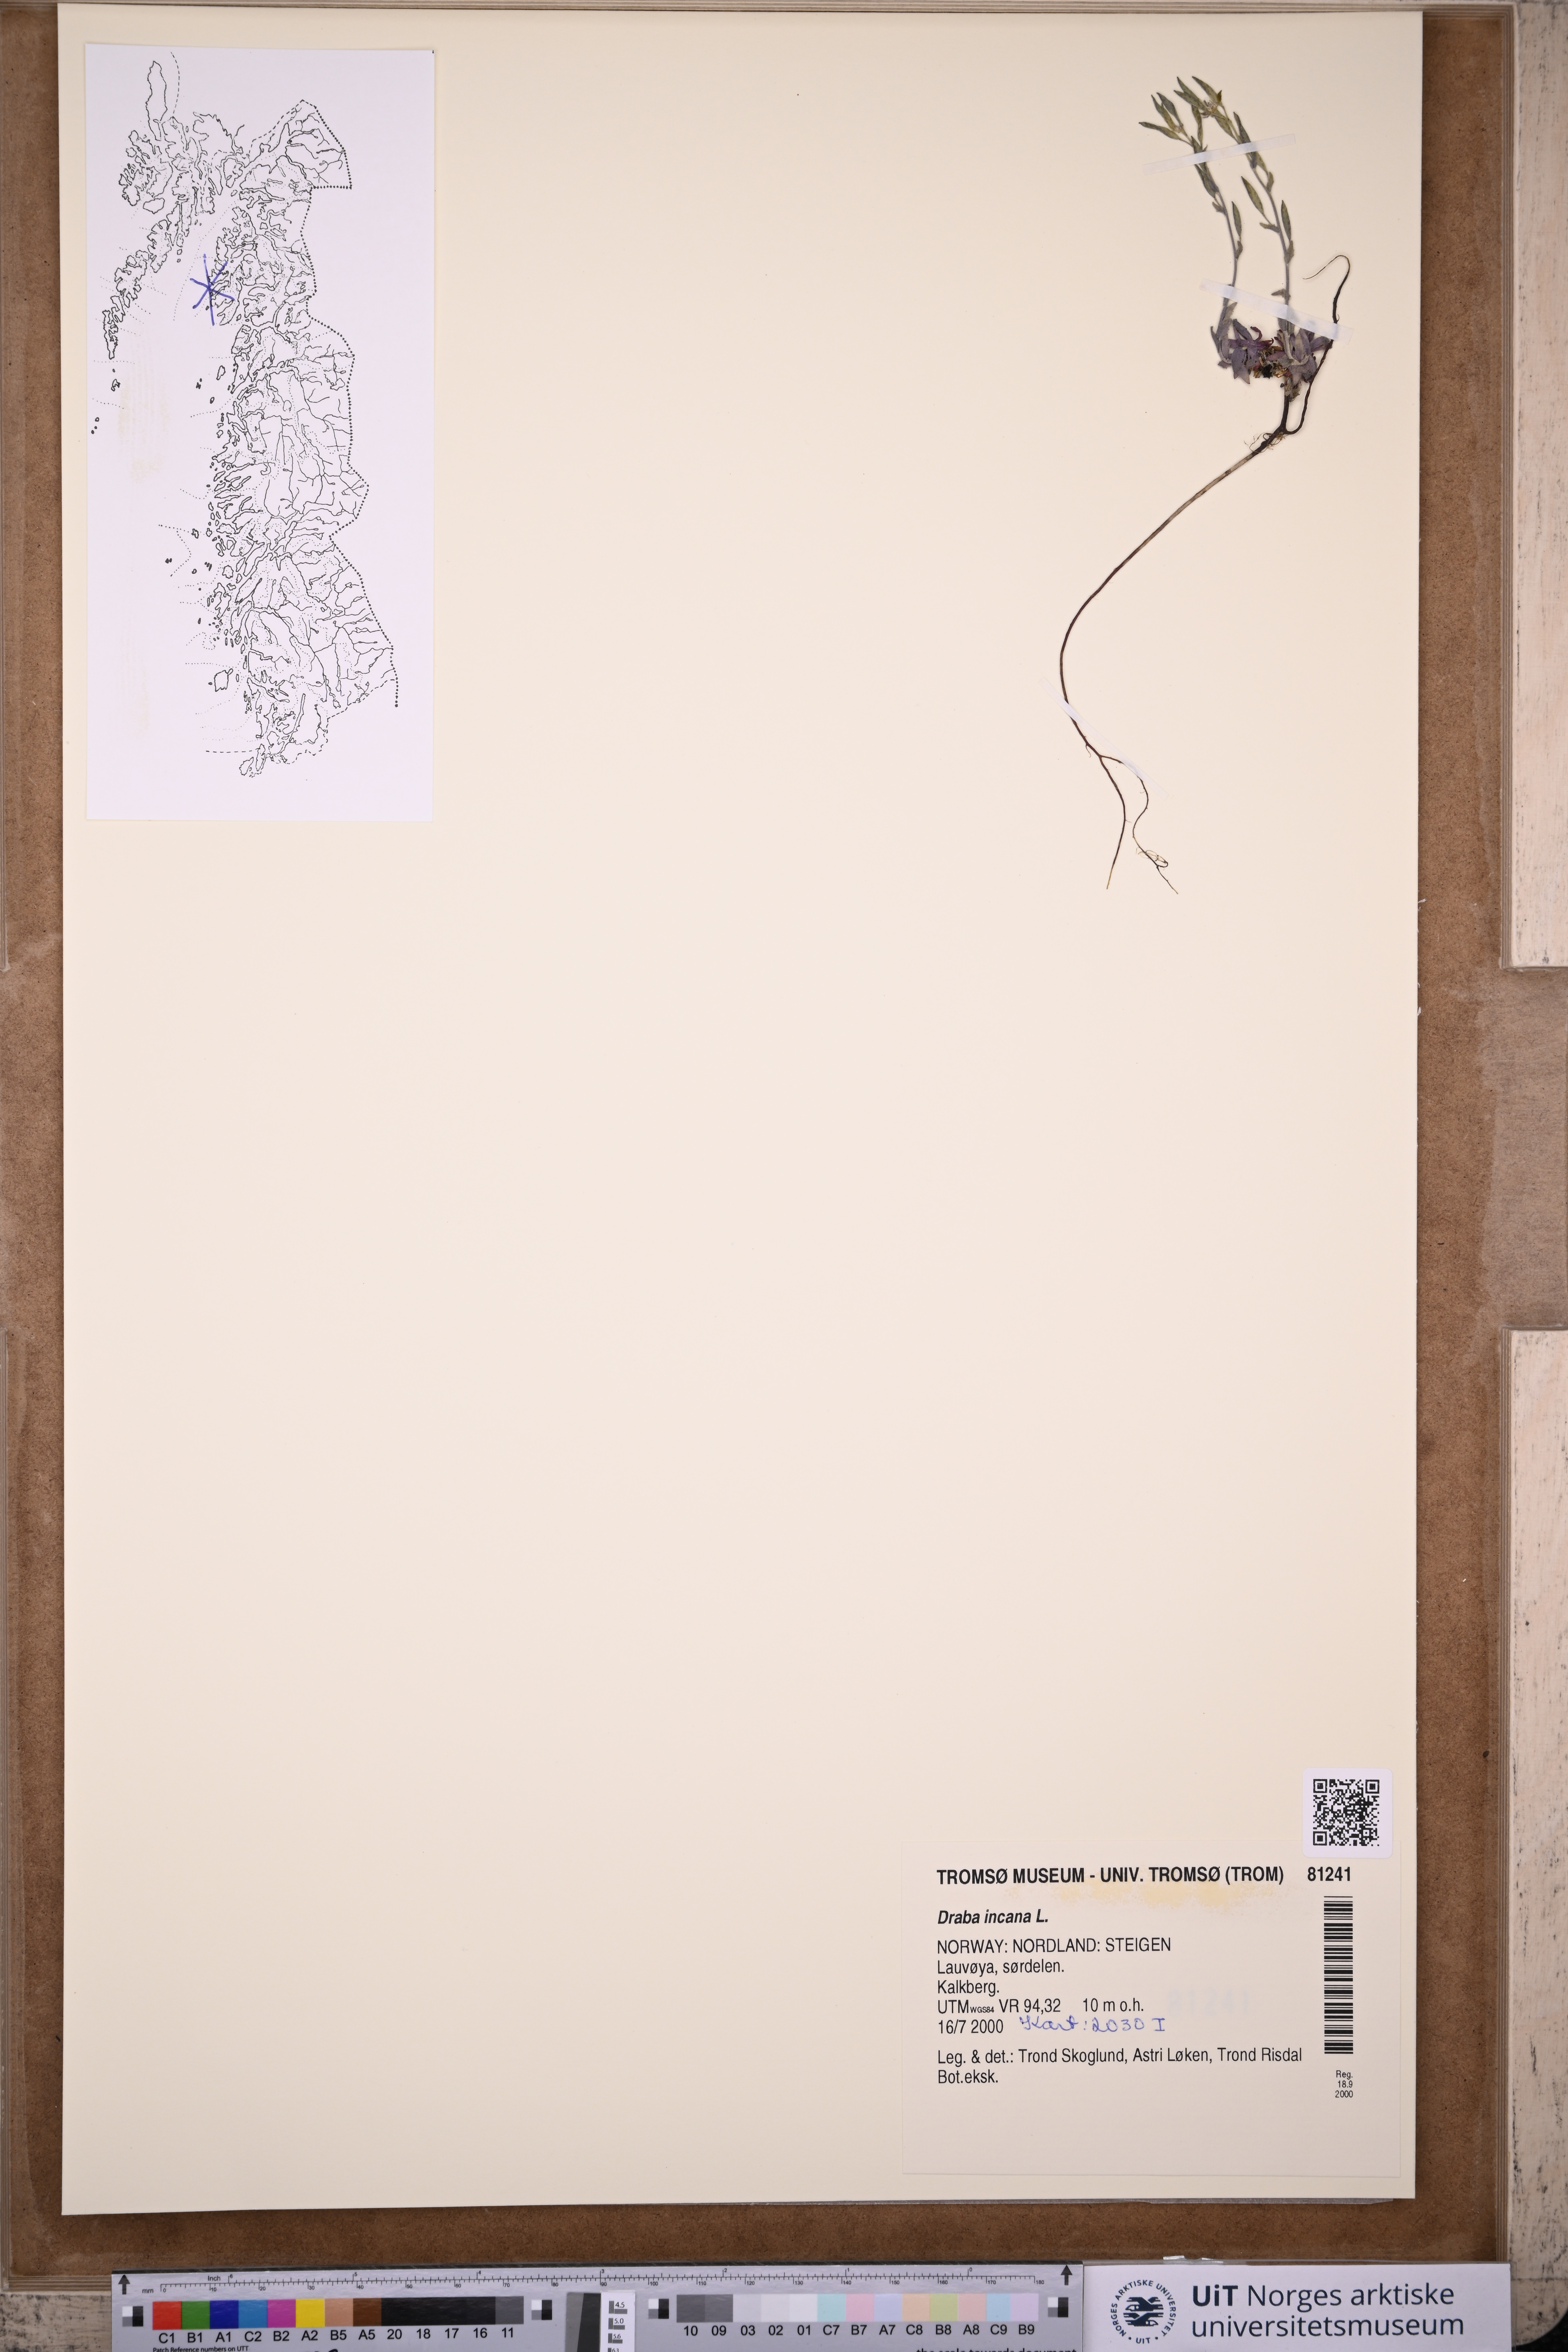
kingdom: Plantae
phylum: Tracheophyta
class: Magnoliopsida
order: Brassicales
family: Brassicaceae
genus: Draba
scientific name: Draba incana
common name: Hoary whitlow-grass
